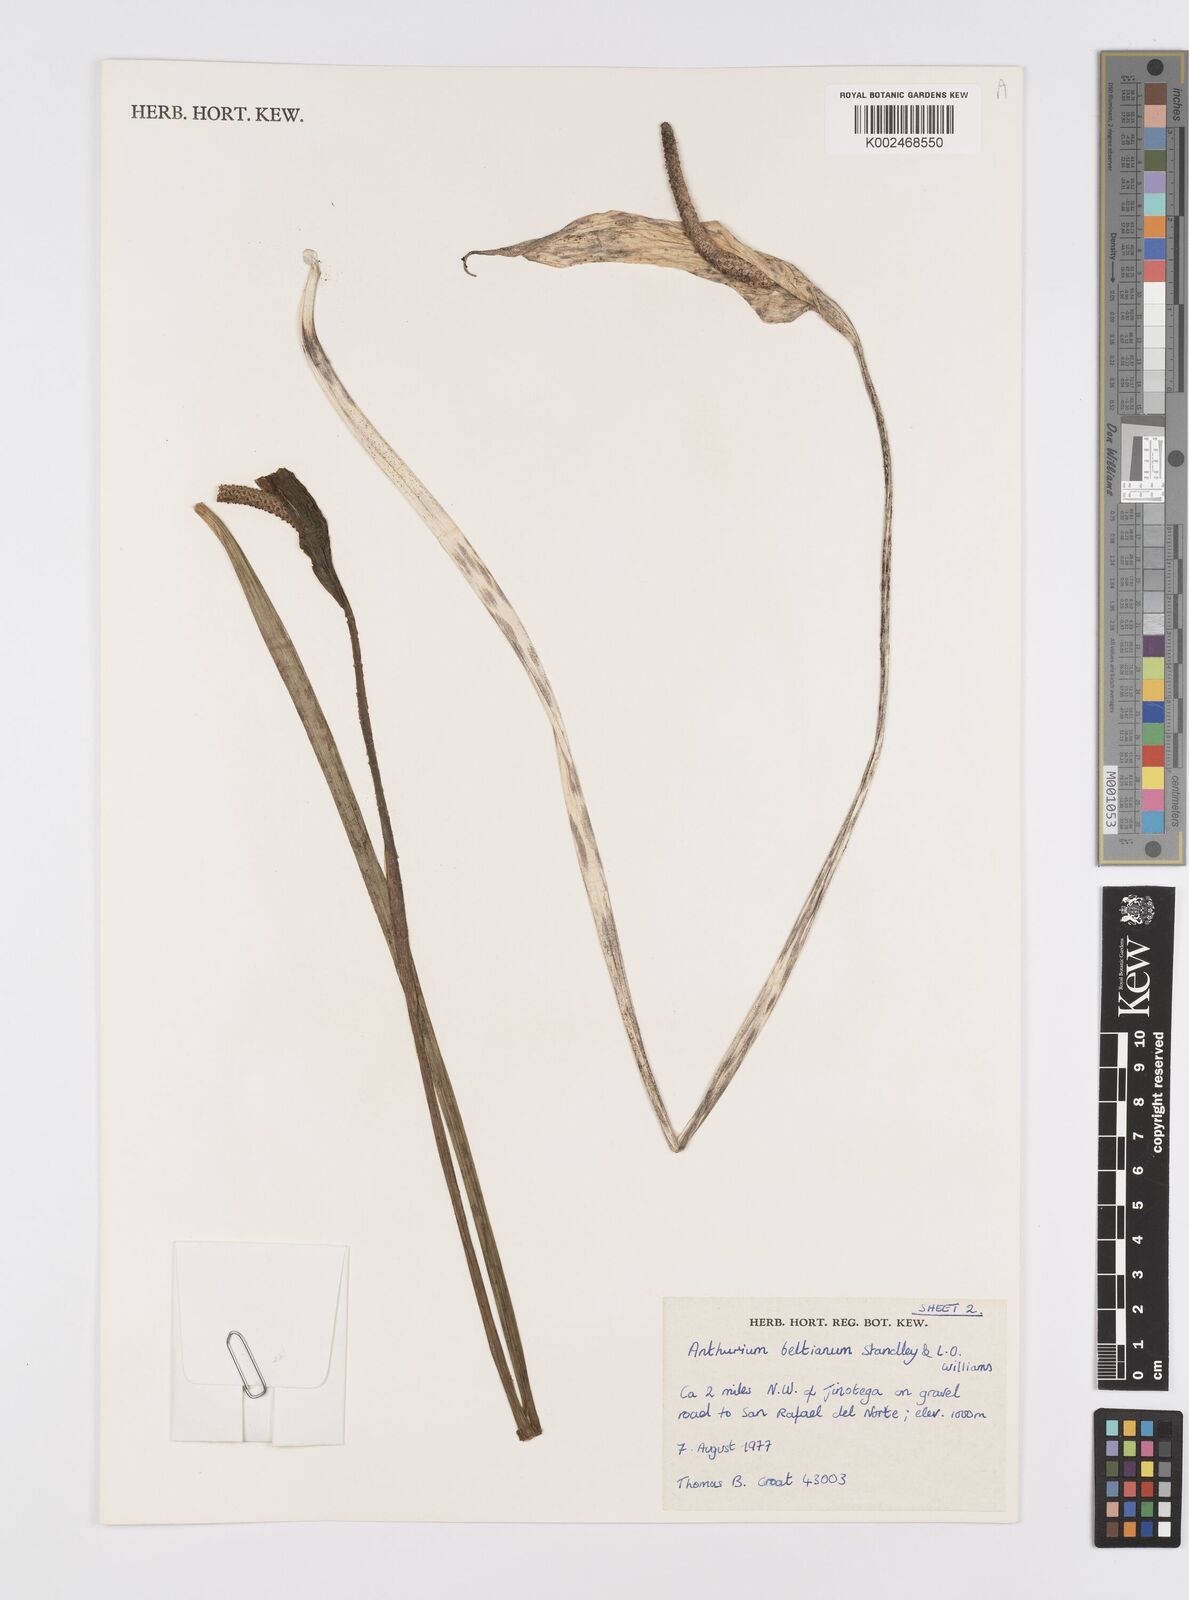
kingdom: Plantae
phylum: Tracheophyta
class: Liliopsida
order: Alismatales
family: Araceae
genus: Anthurium
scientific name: Anthurium beltianum
